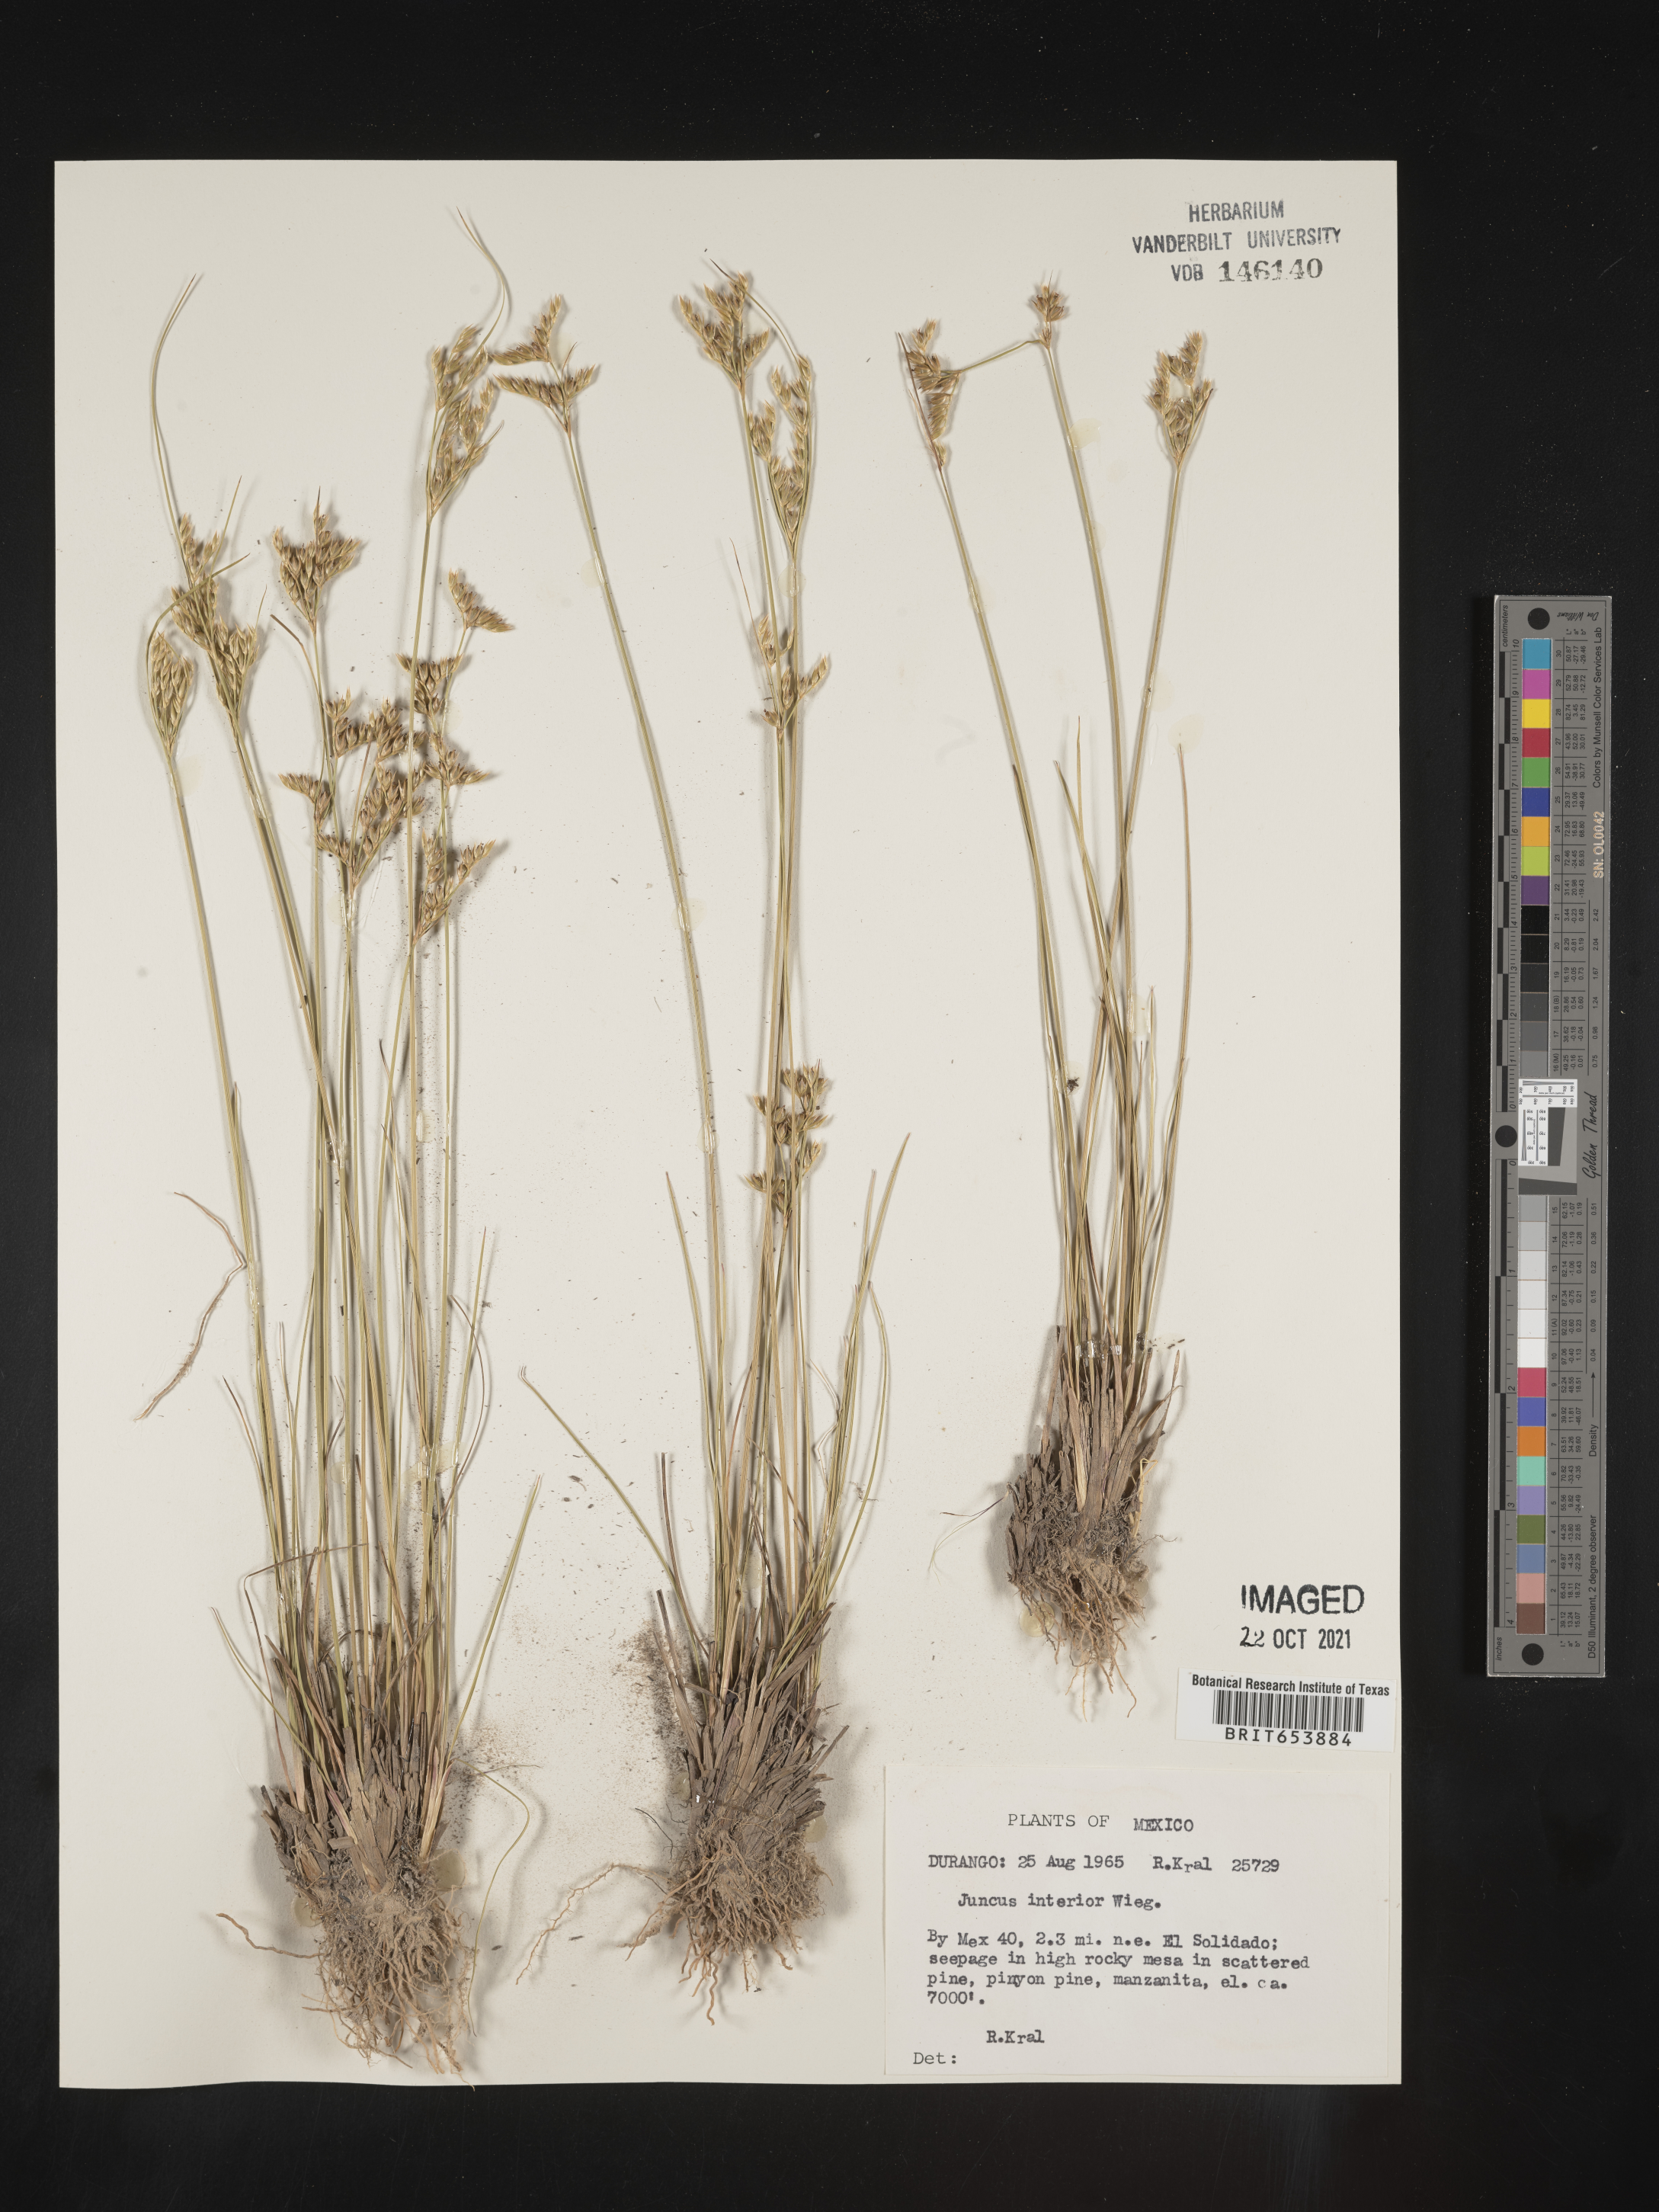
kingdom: Plantae
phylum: Tracheophyta
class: Liliopsida
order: Poales
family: Juncaceae
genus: Juncus
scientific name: Juncus
